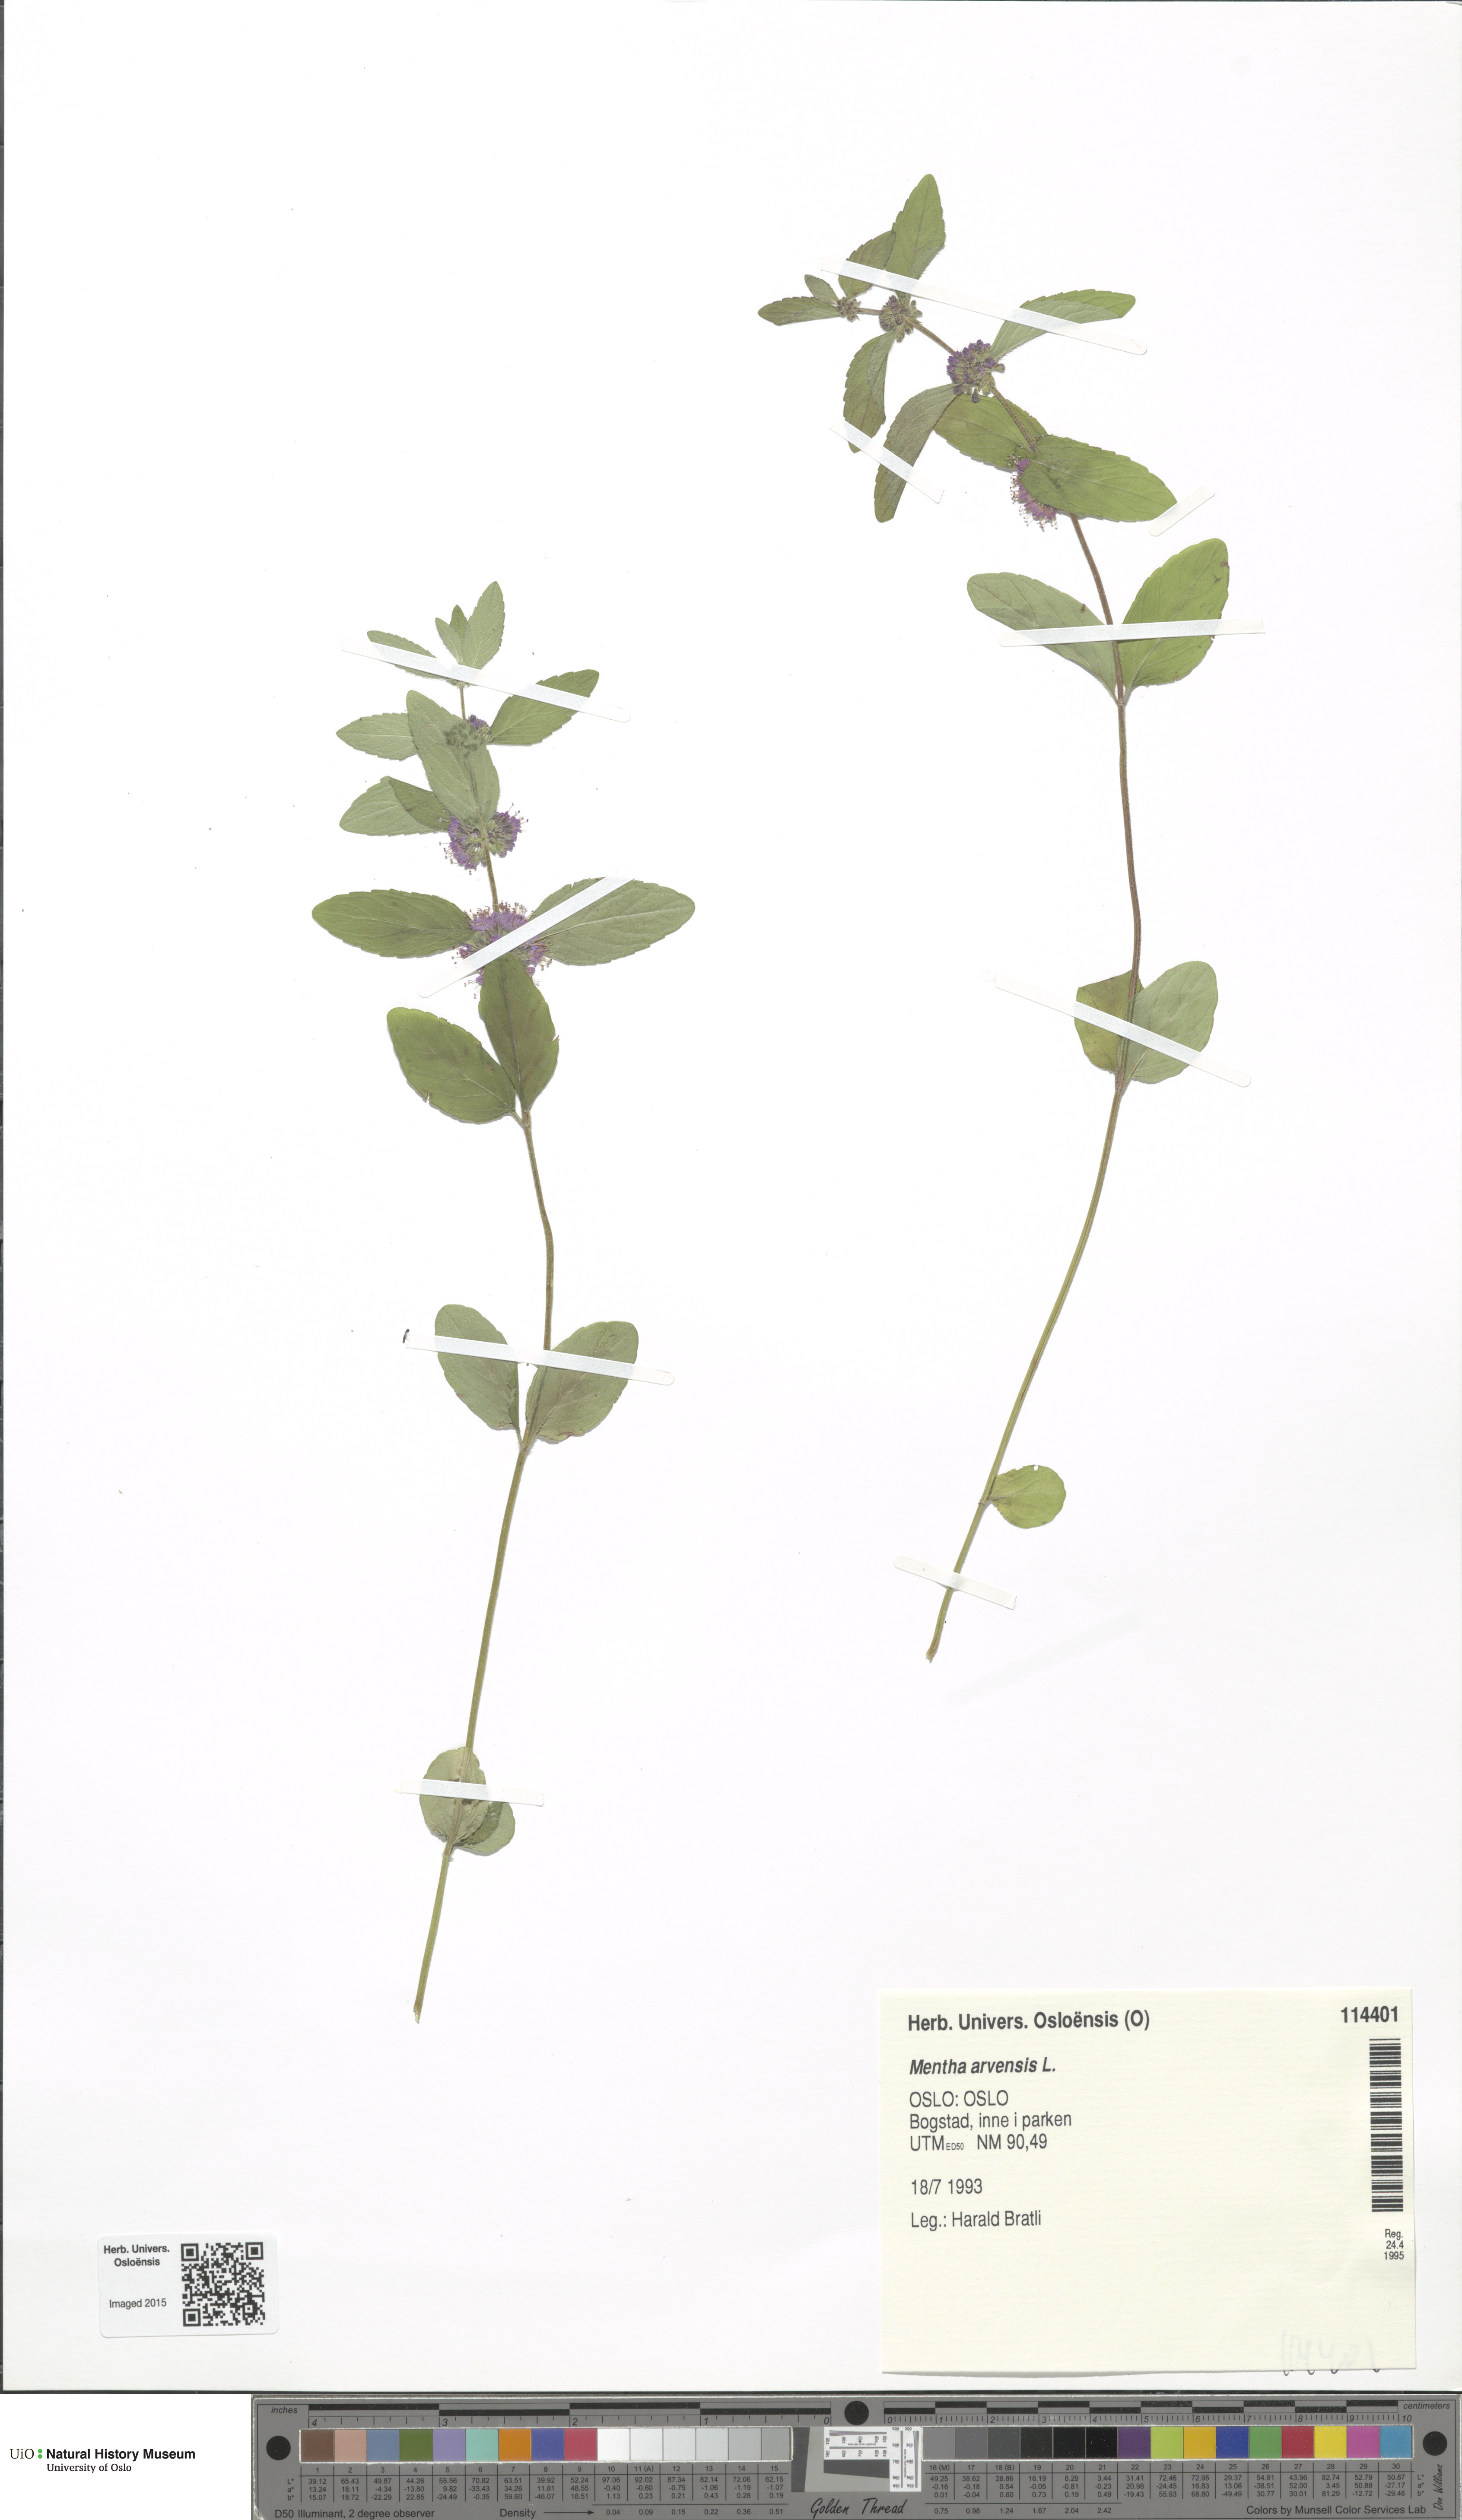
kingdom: Plantae
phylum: Tracheophyta
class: Magnoliopsida
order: Lamiales
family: Lamiaceae
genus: Mentha
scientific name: Mentha arvensis
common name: Corn mint
